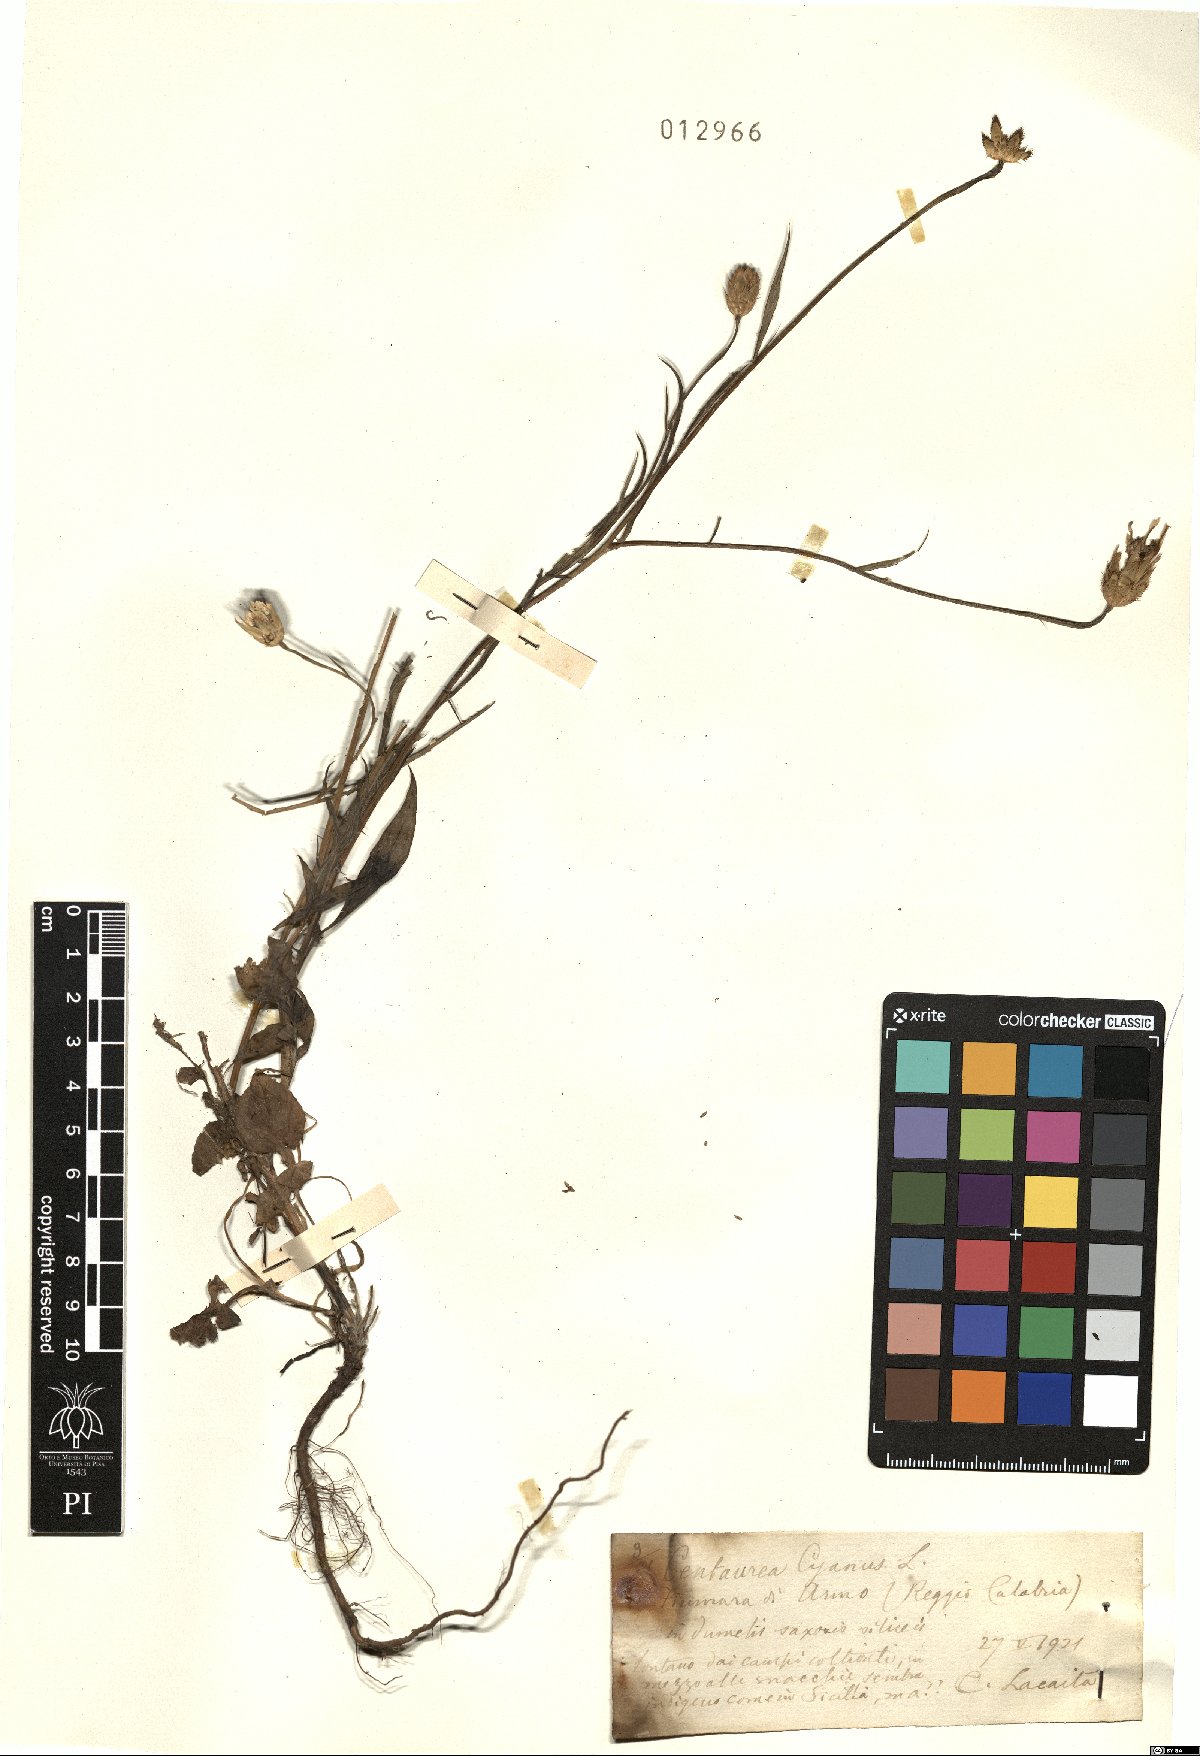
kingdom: Plantae
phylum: Tracheophyta
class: Magnoliopsida
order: Asterales
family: Asteraceae
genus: Centaurea
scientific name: Centaurea cyanus
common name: Cornflower
